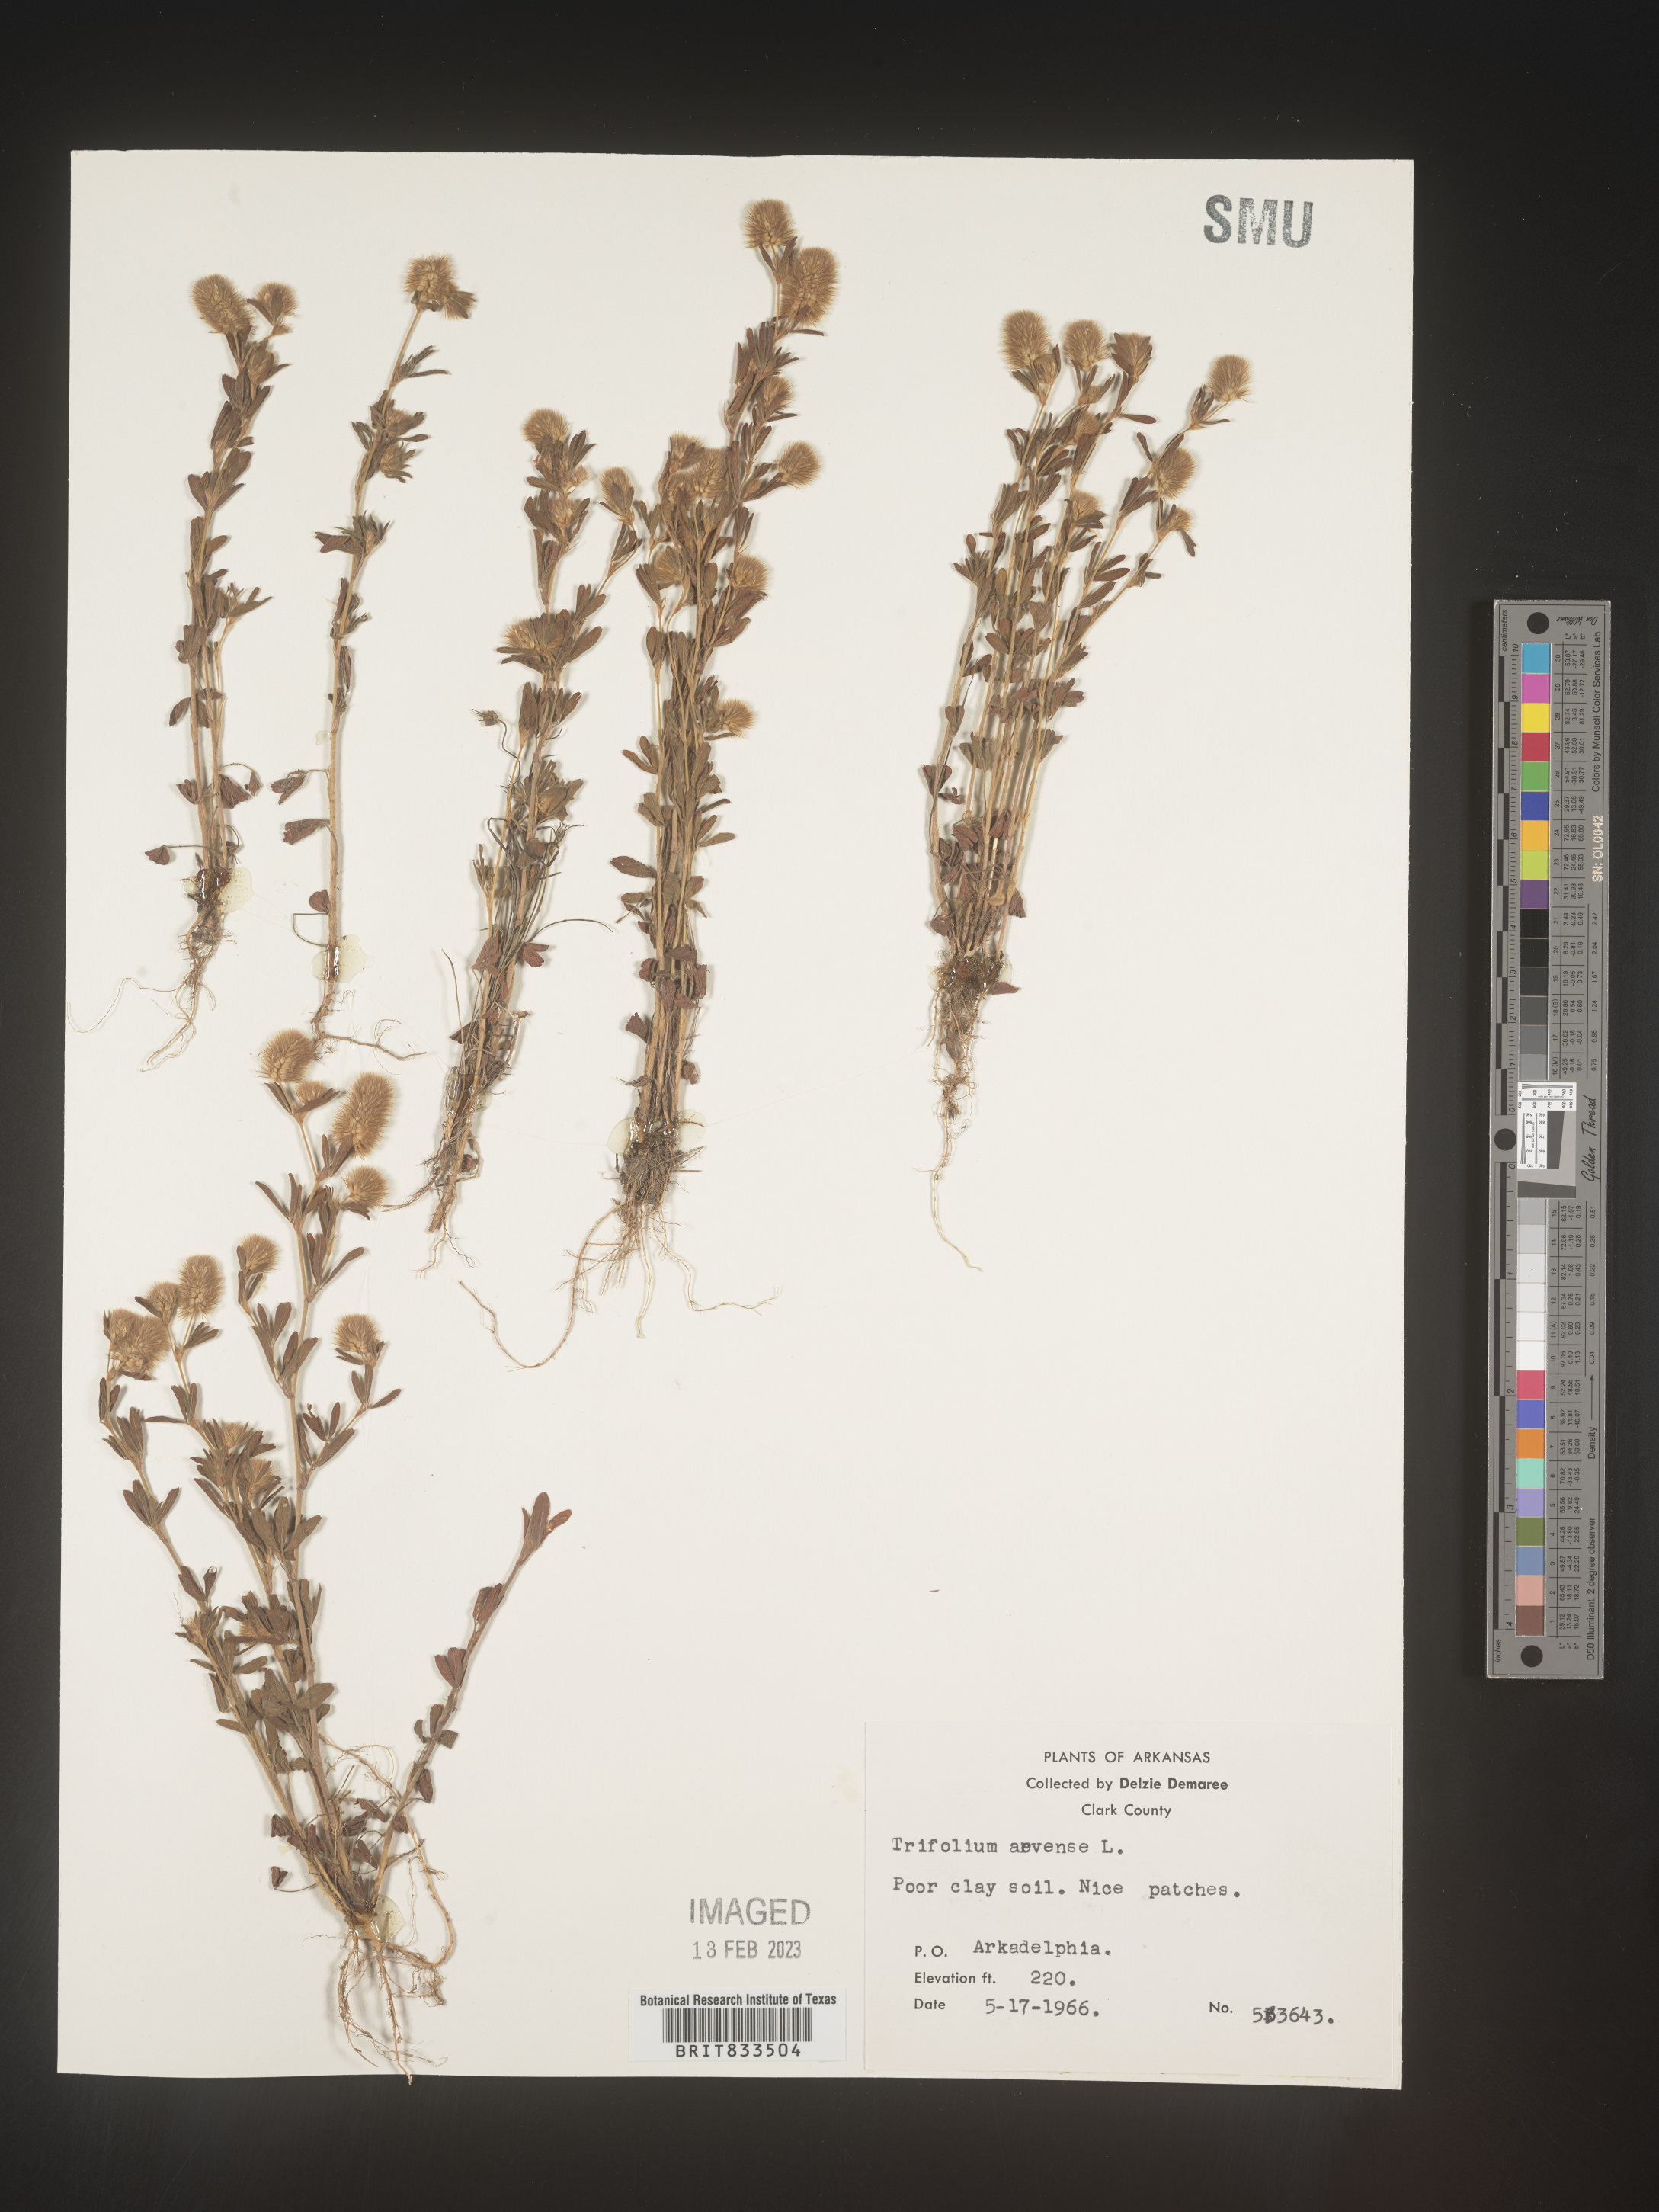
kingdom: Plantae
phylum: Tracheophyta
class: Magnoliopsida
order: Fabales
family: Fabaceae
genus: Trifolium
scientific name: Trifolium arvense
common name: Hare's-foot clover
